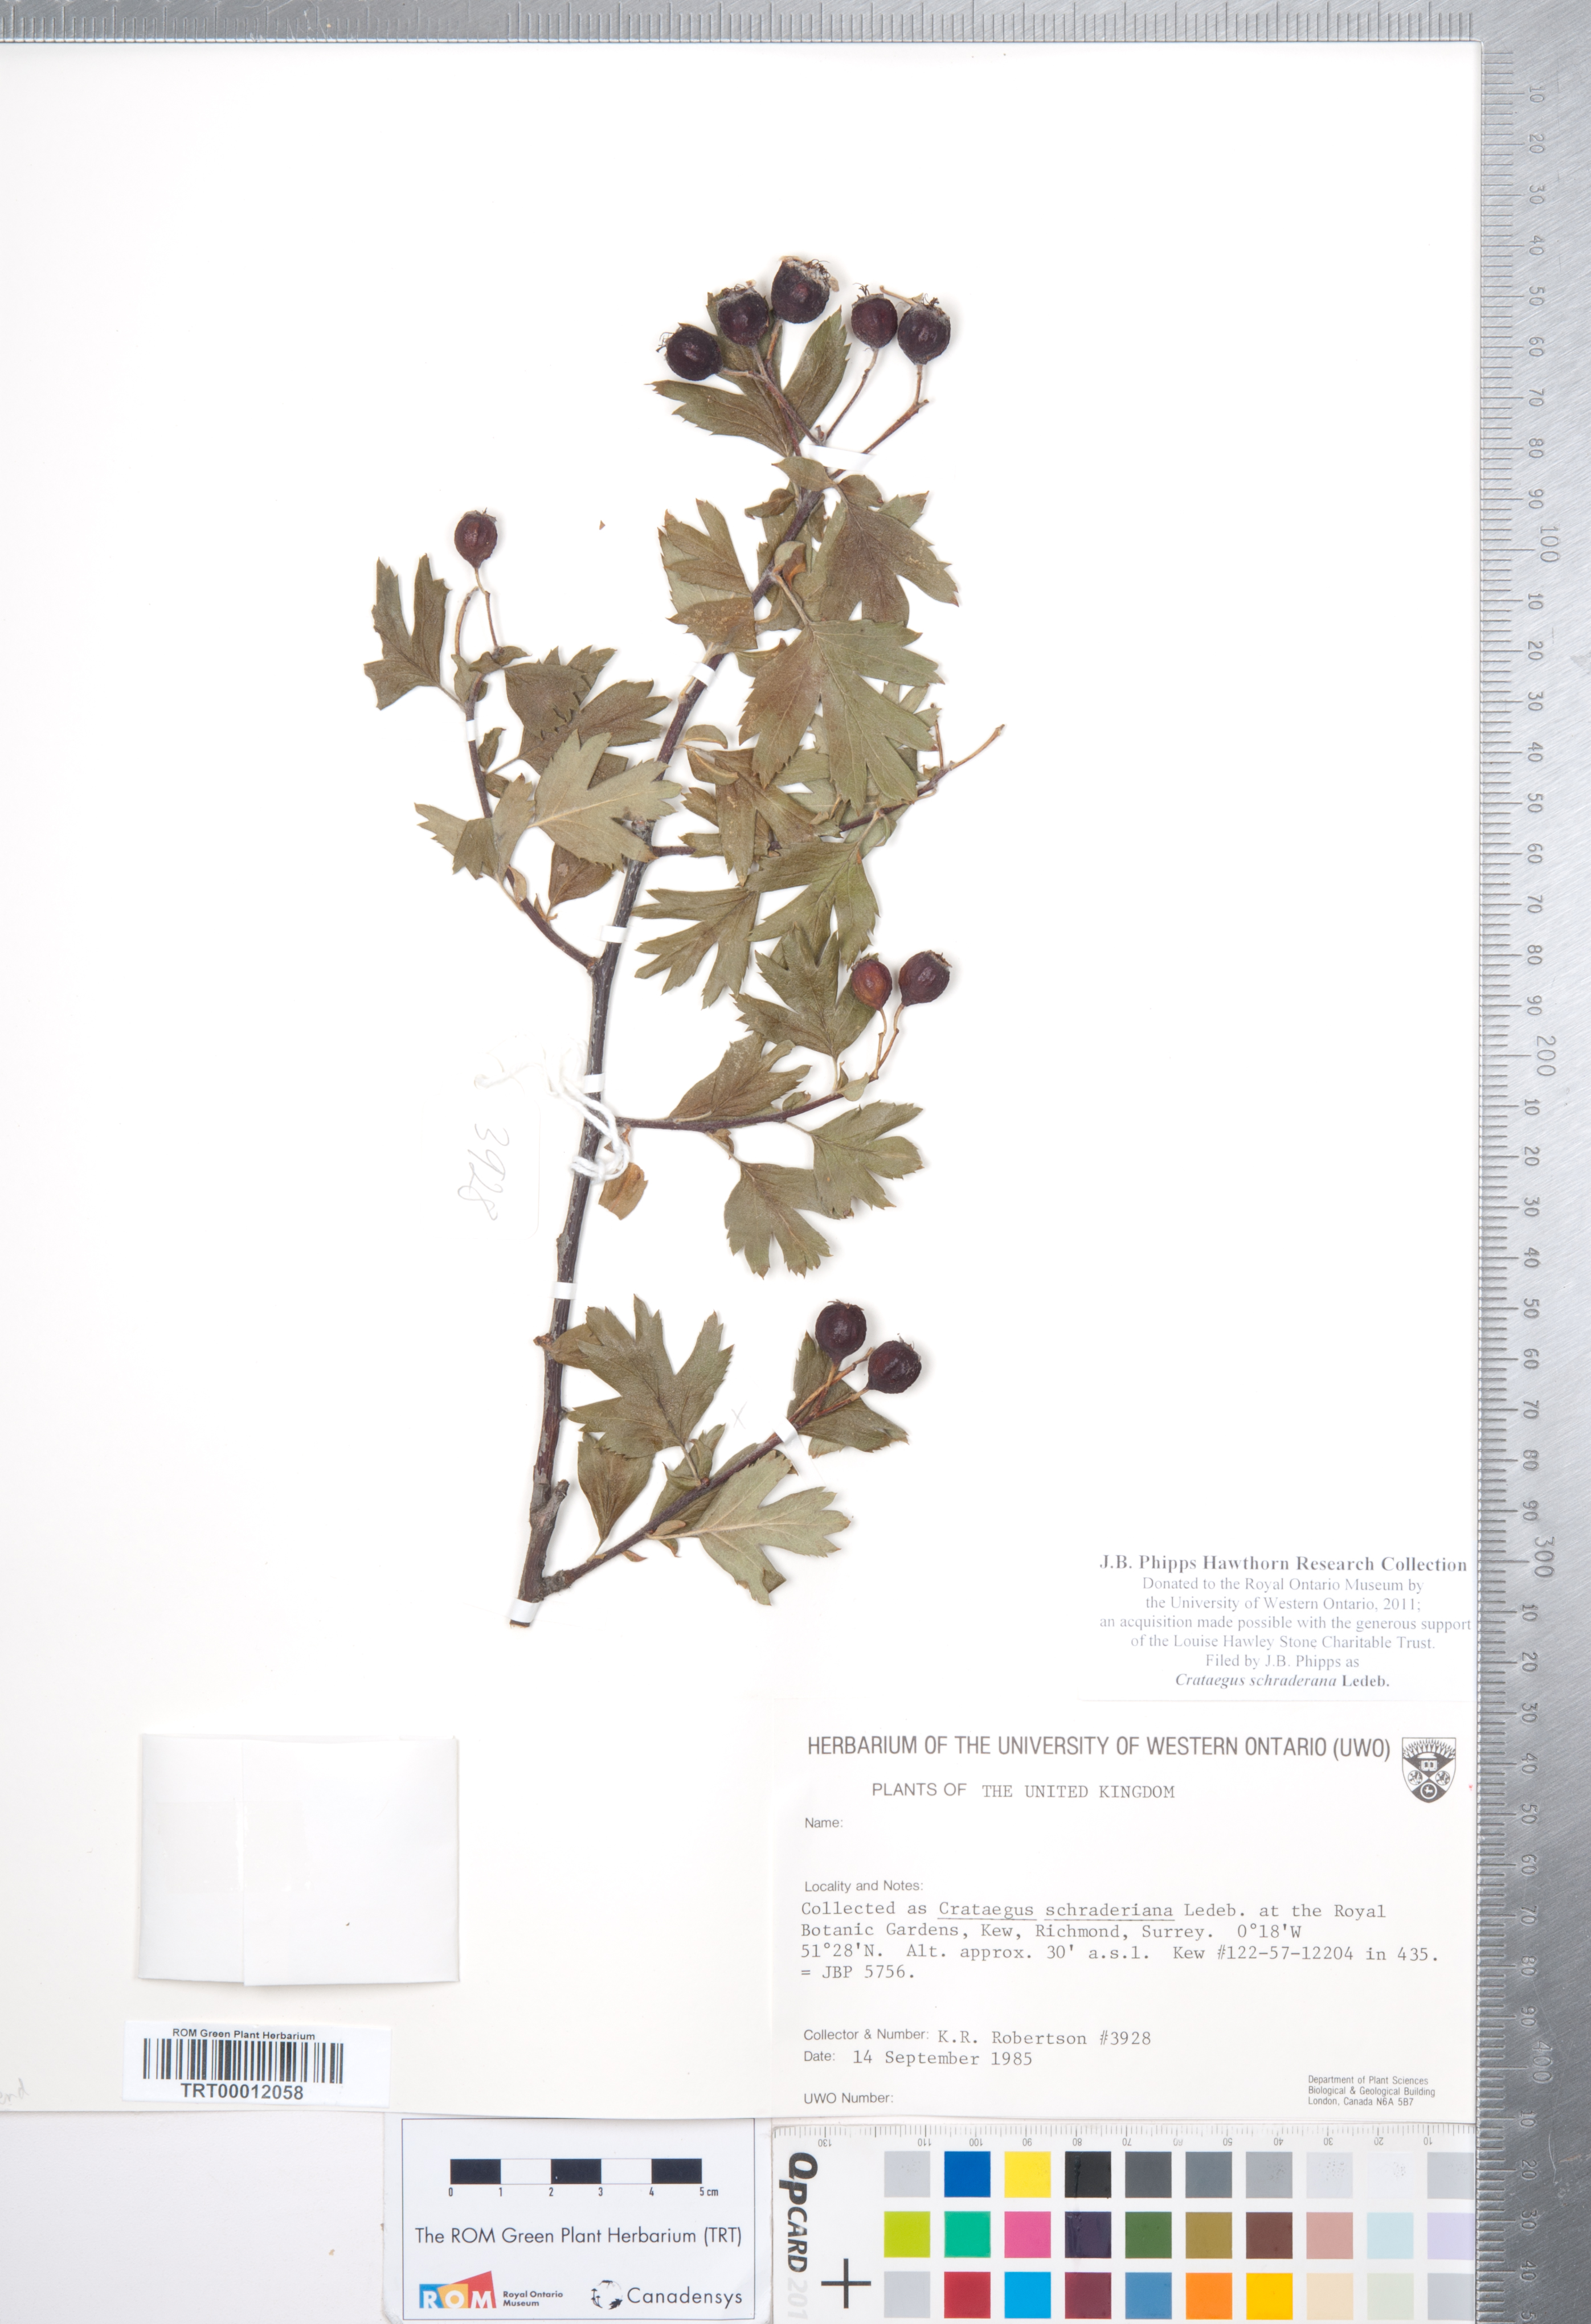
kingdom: Plantae
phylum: Tracheophyta
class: Magnoliopsida
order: Rosales
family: Rosaceae
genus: Crataegus
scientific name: Crataegus orientalis
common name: Oriental hawthorn
